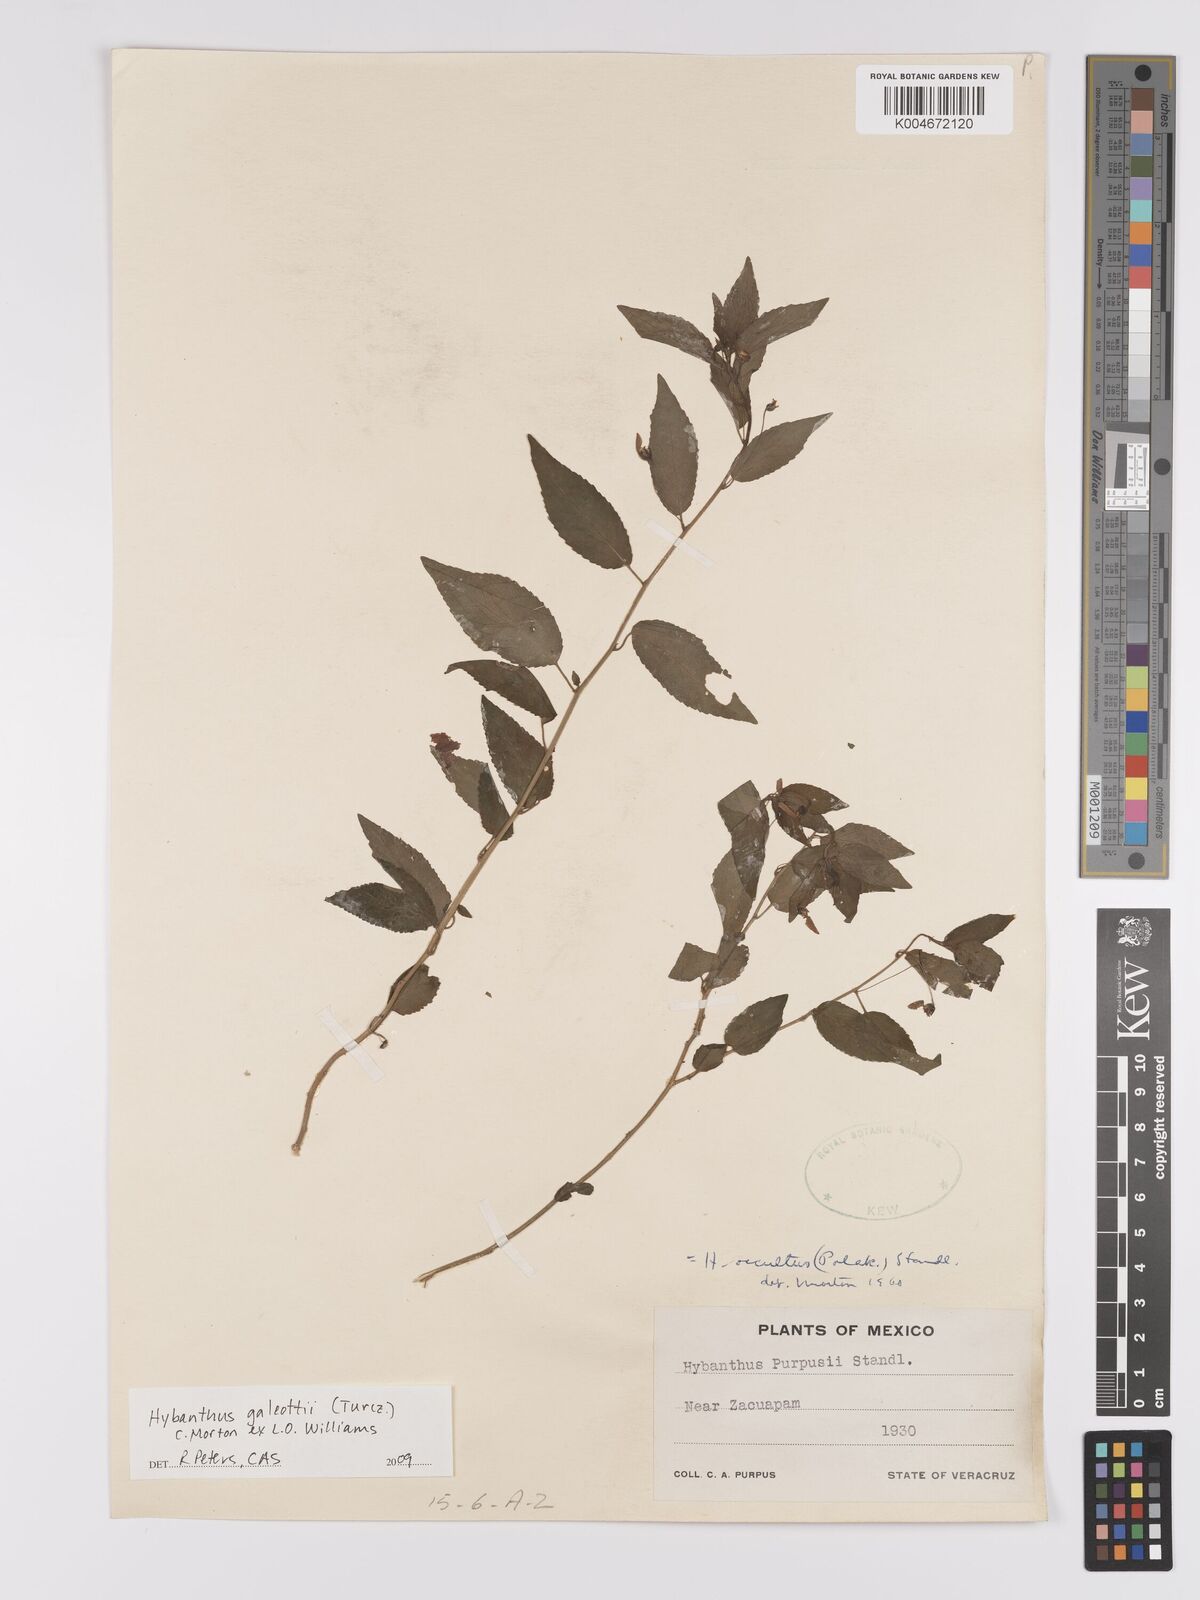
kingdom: Plantae
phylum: Tracheophyta
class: Magnoliopsida
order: Malpighiales
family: Violaceae
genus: Hybanthus
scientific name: Hybanthus galeottii
